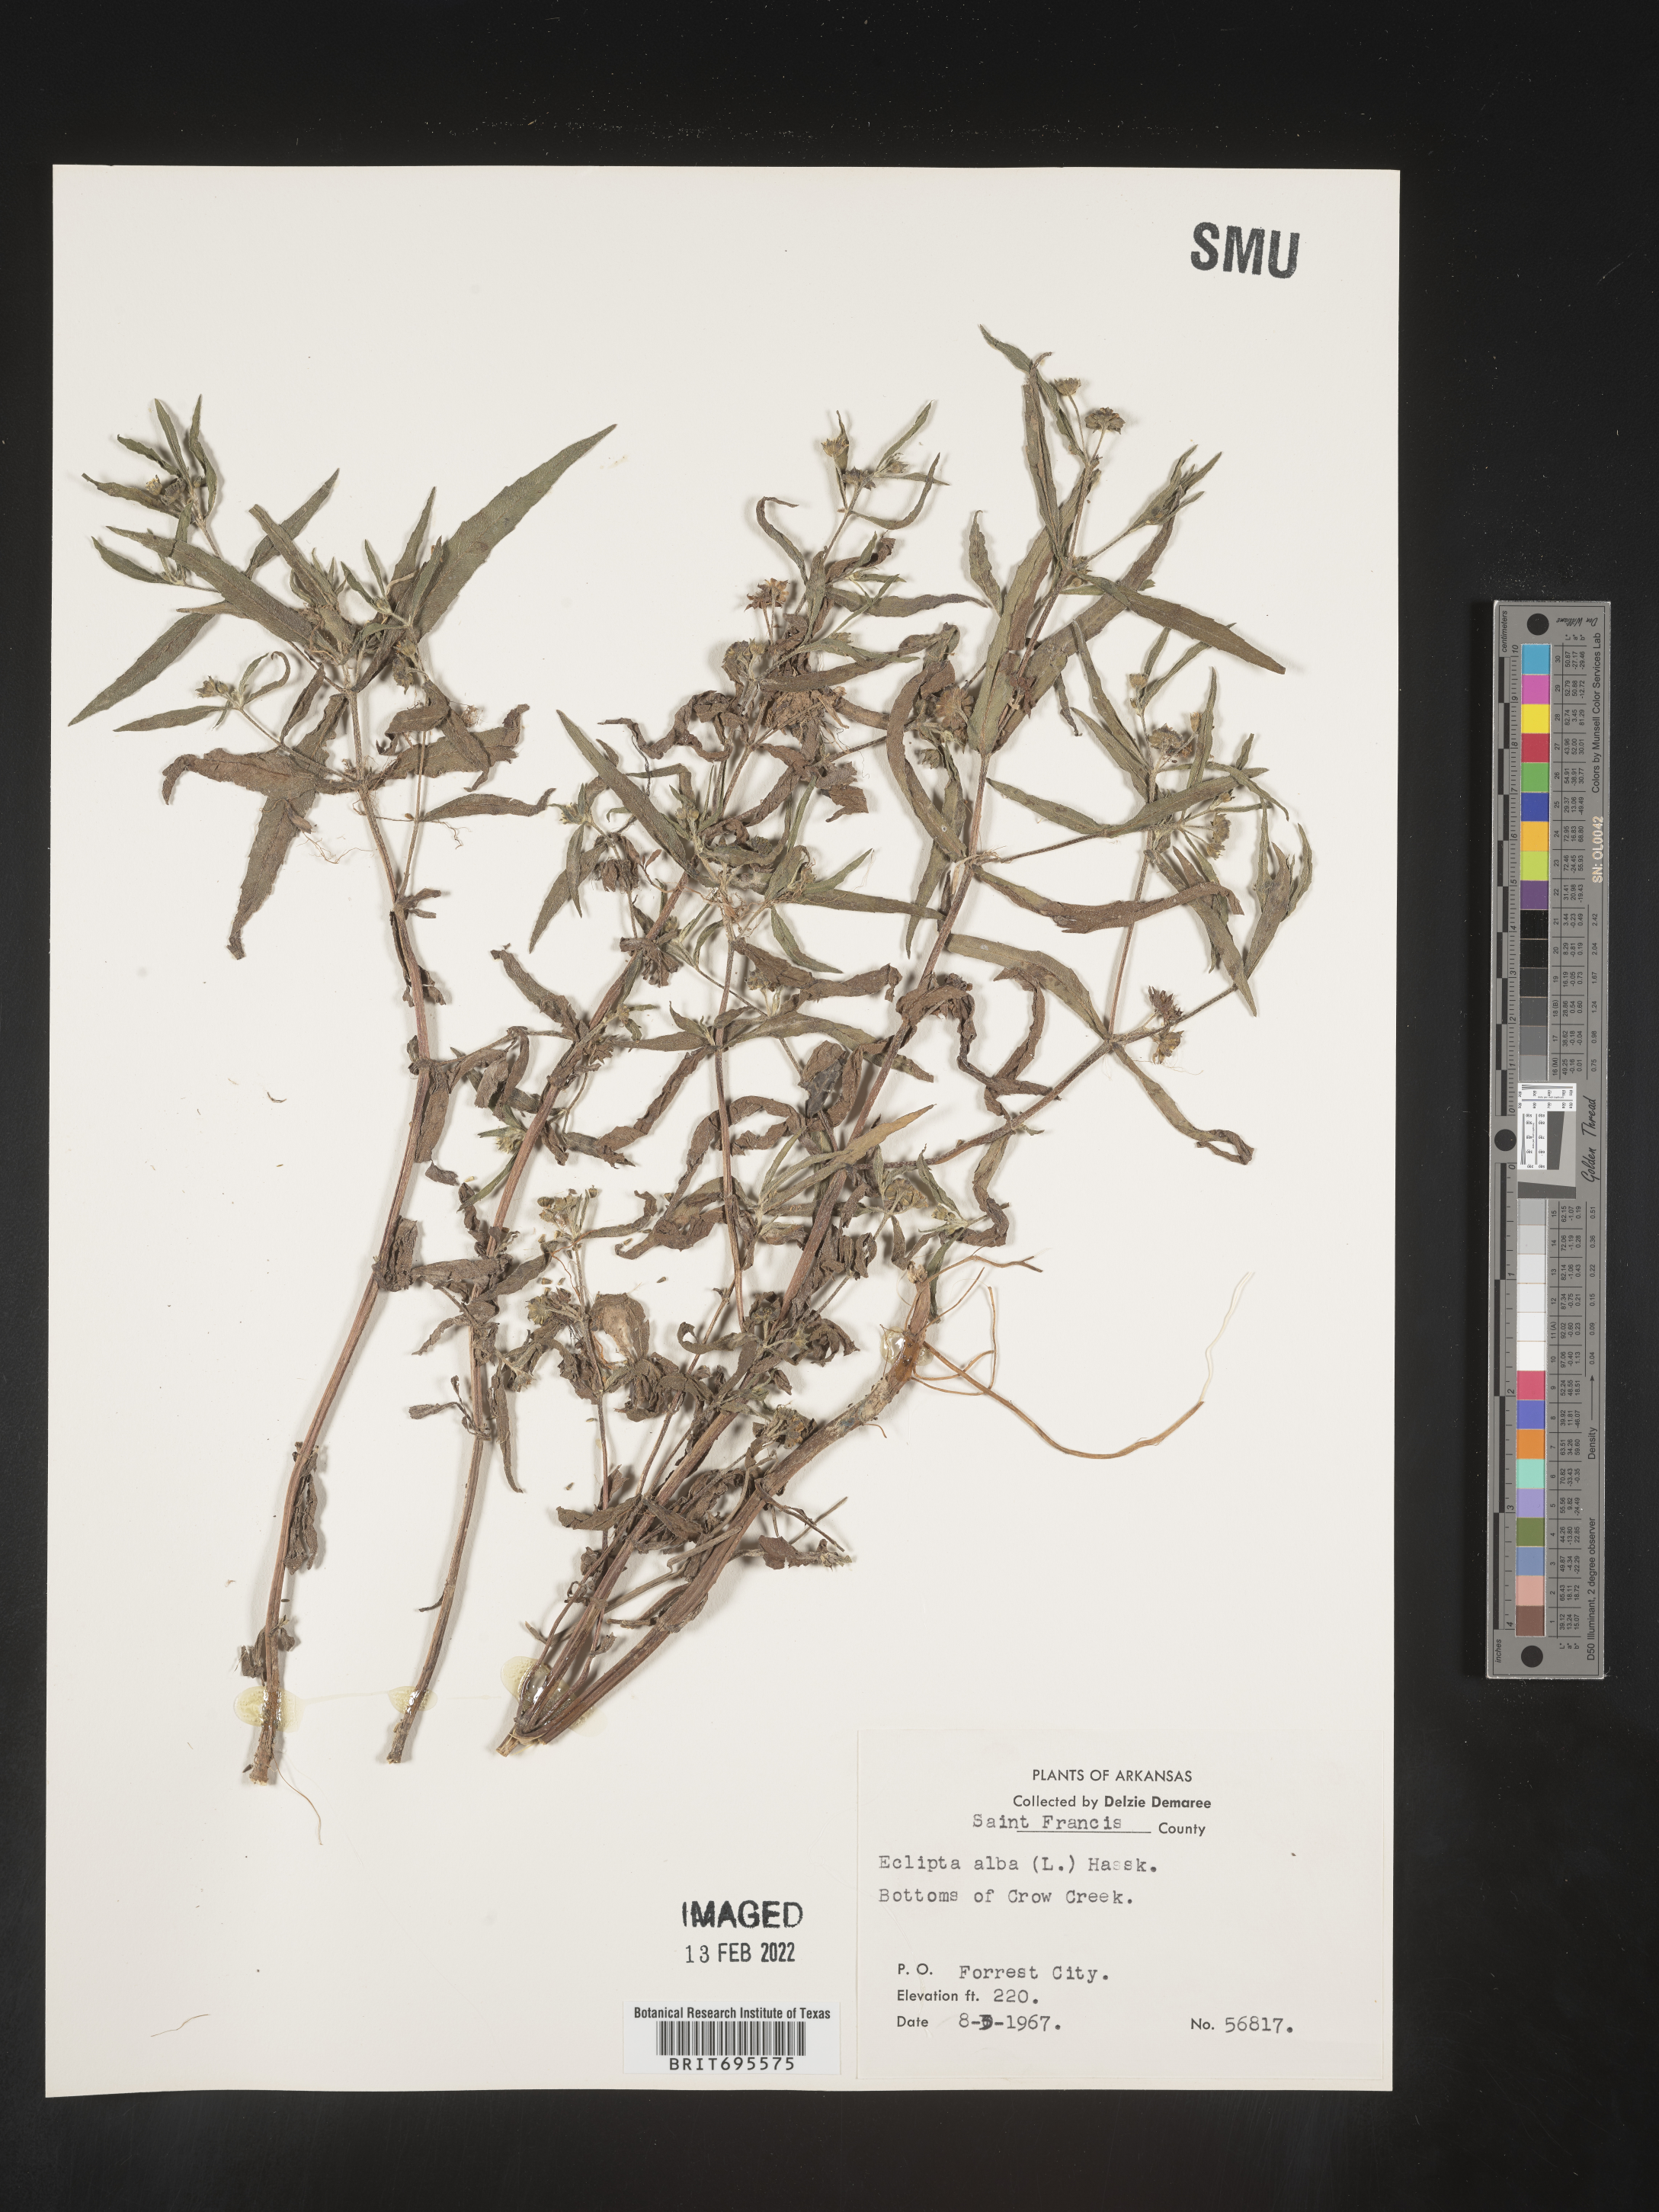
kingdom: Plantae
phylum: Tracheophyta
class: Magnoliopsida
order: Asterales
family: Asteraceae
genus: Eclipta
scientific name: Eclipta alba
